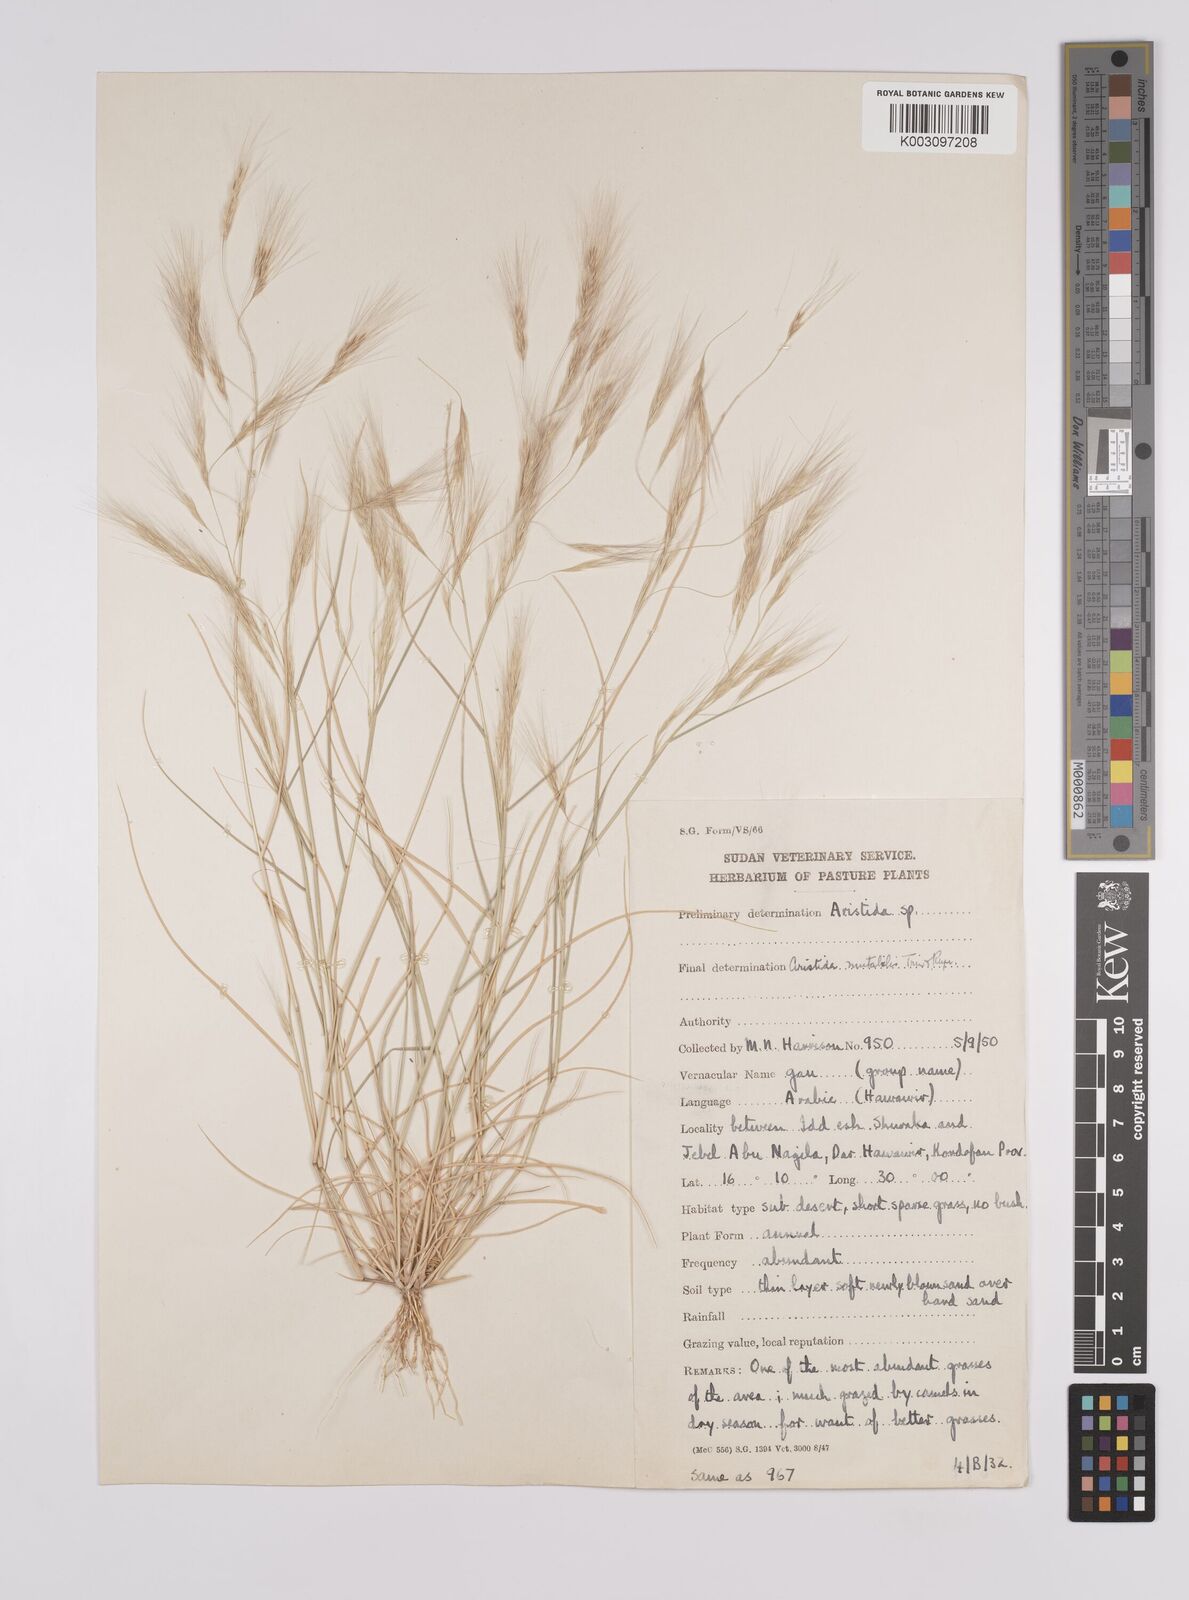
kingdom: Plantae
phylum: Tracheophyta
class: Liliopsida
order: Poales
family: Poaceae
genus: Aristida
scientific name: Aristida mutabilis
